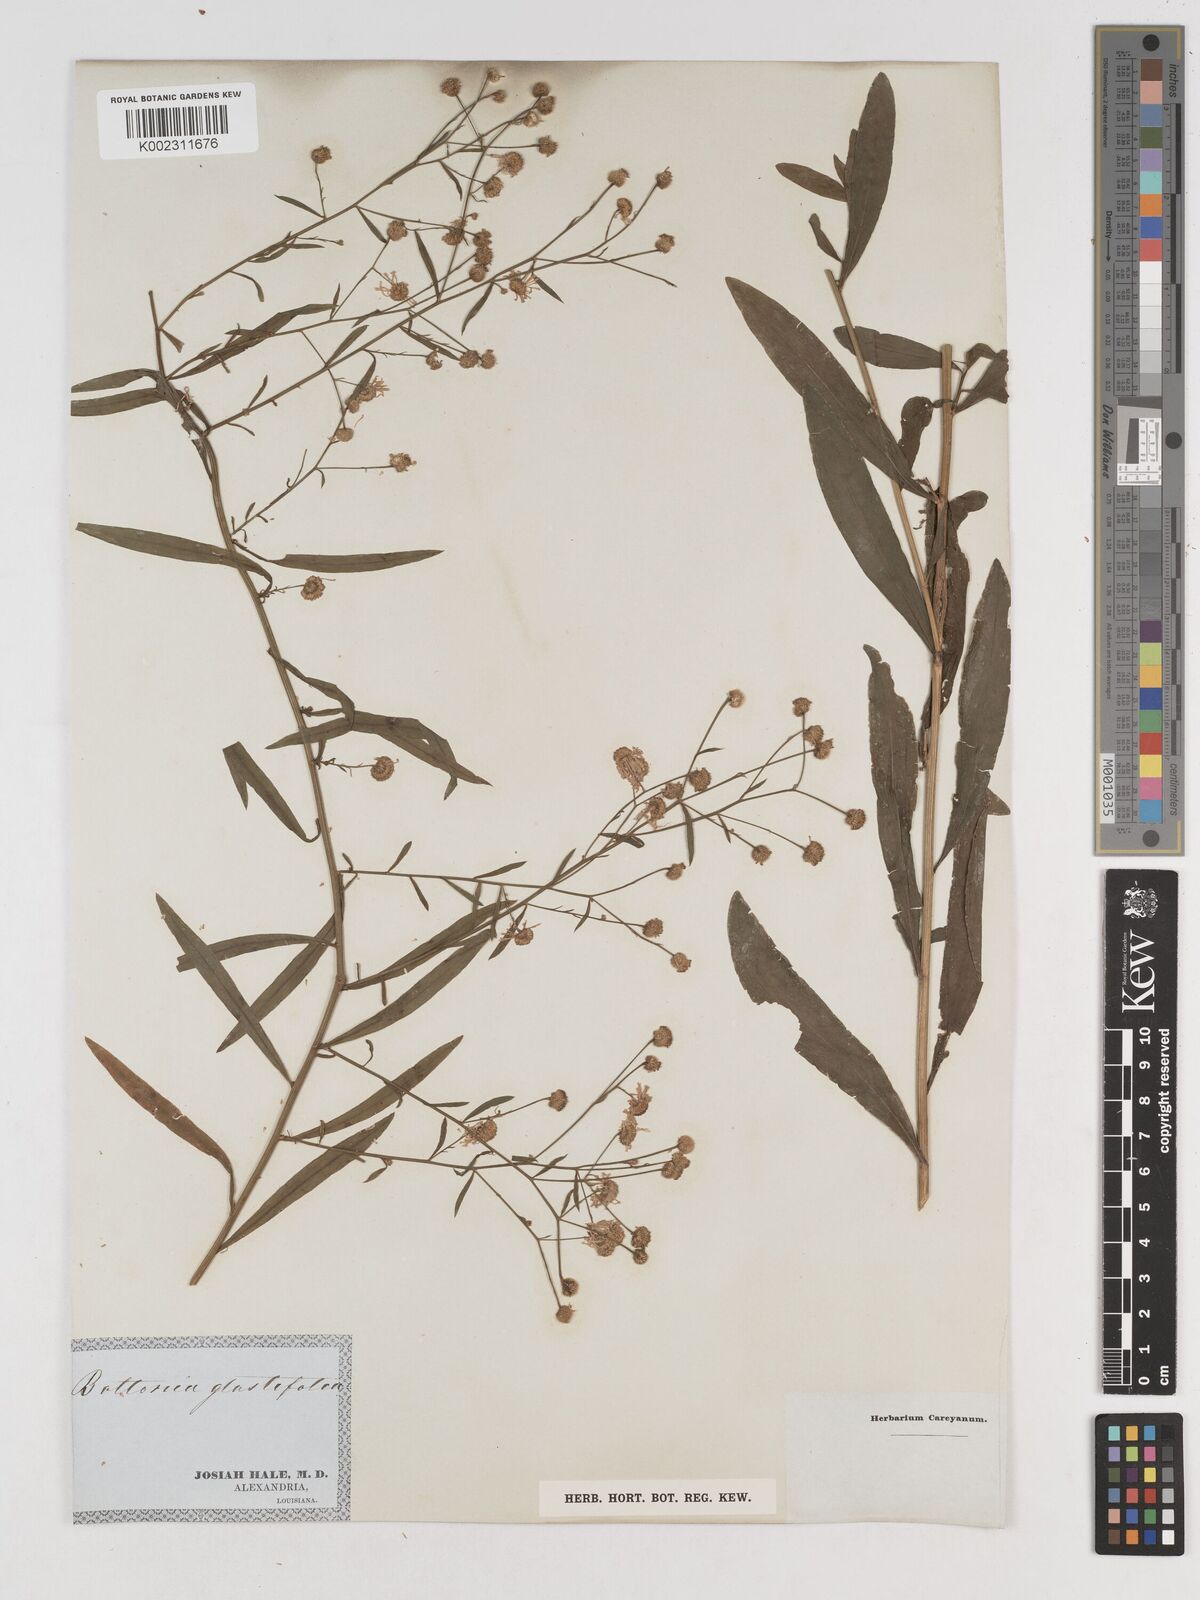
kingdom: Plantae
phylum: Tracheophyta
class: Magnoliopsida
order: Asterales
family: Asteraceae
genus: Boltonia
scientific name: Boltonia glastifolia
